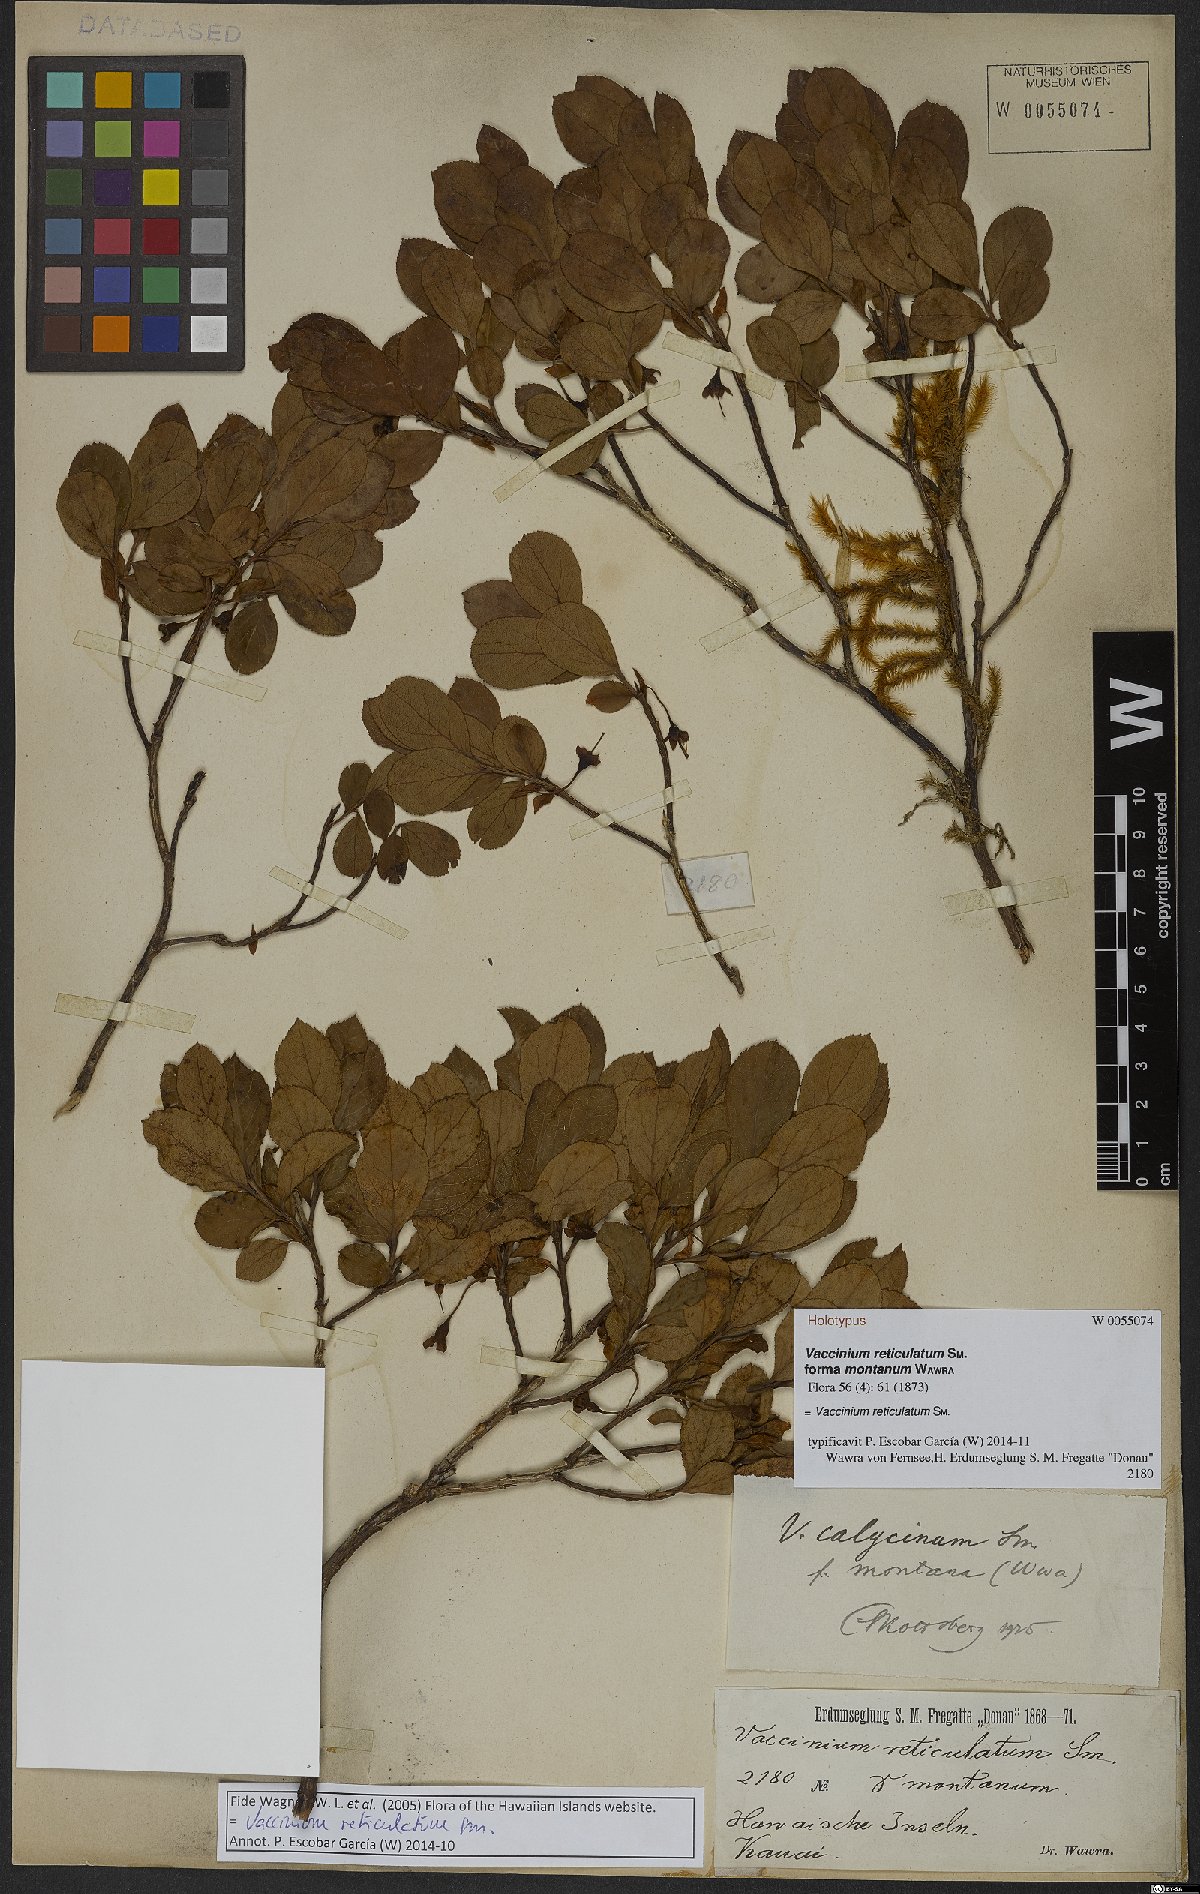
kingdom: Plantae
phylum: Tracheophyta
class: Magnoliopsida
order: Ericales
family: Ericaceae
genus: Vaccinium
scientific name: Vaccinium reticulatum
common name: Ohelo
